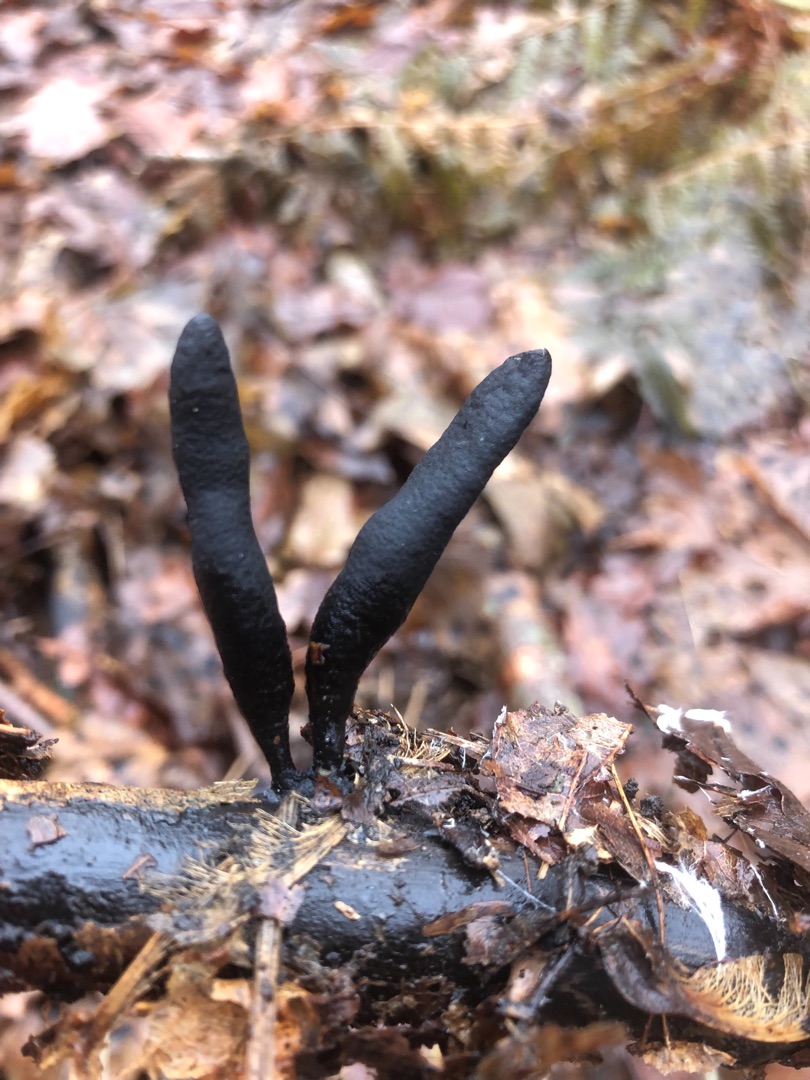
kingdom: Fungi
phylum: Ascomycota
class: Sordariomycetes
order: Xylariales
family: Xylariaceae
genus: Xylaria
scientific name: Xylaria longipes
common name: Slank stødsvamp
